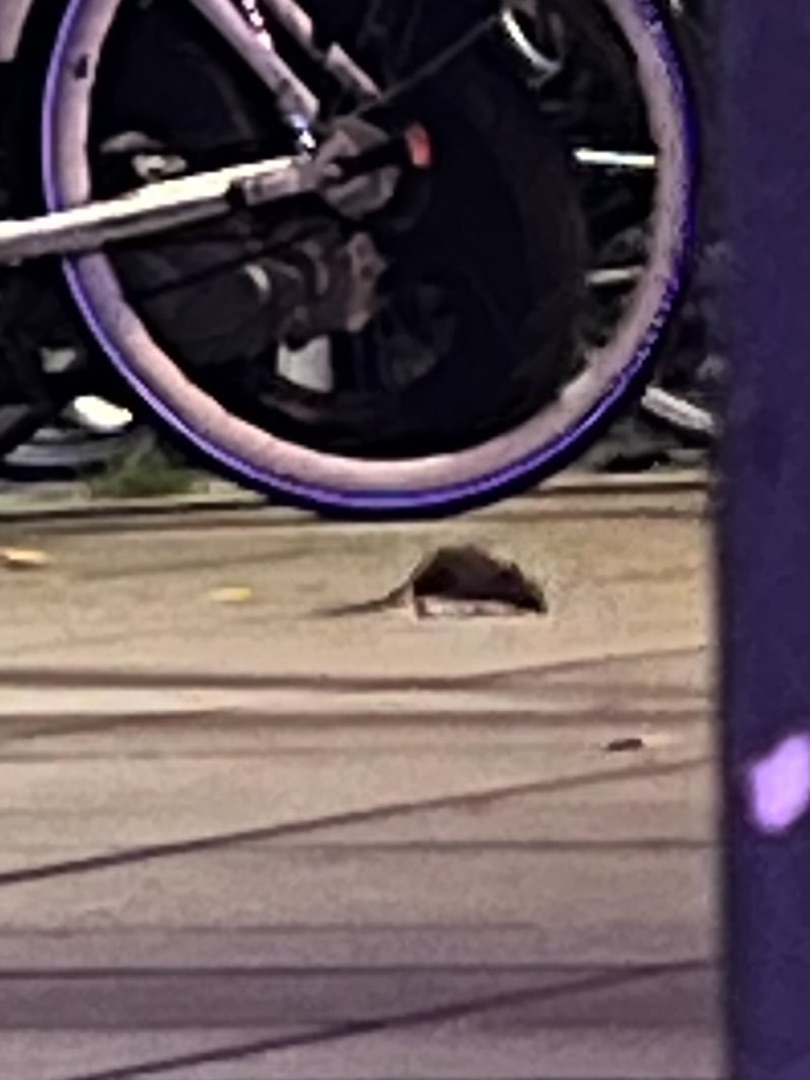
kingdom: Animalia
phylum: Chordata
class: Mammalia
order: Rodentia
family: Muridae
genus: Rattus
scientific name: Rattus norvegicus
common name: Brun rotte
